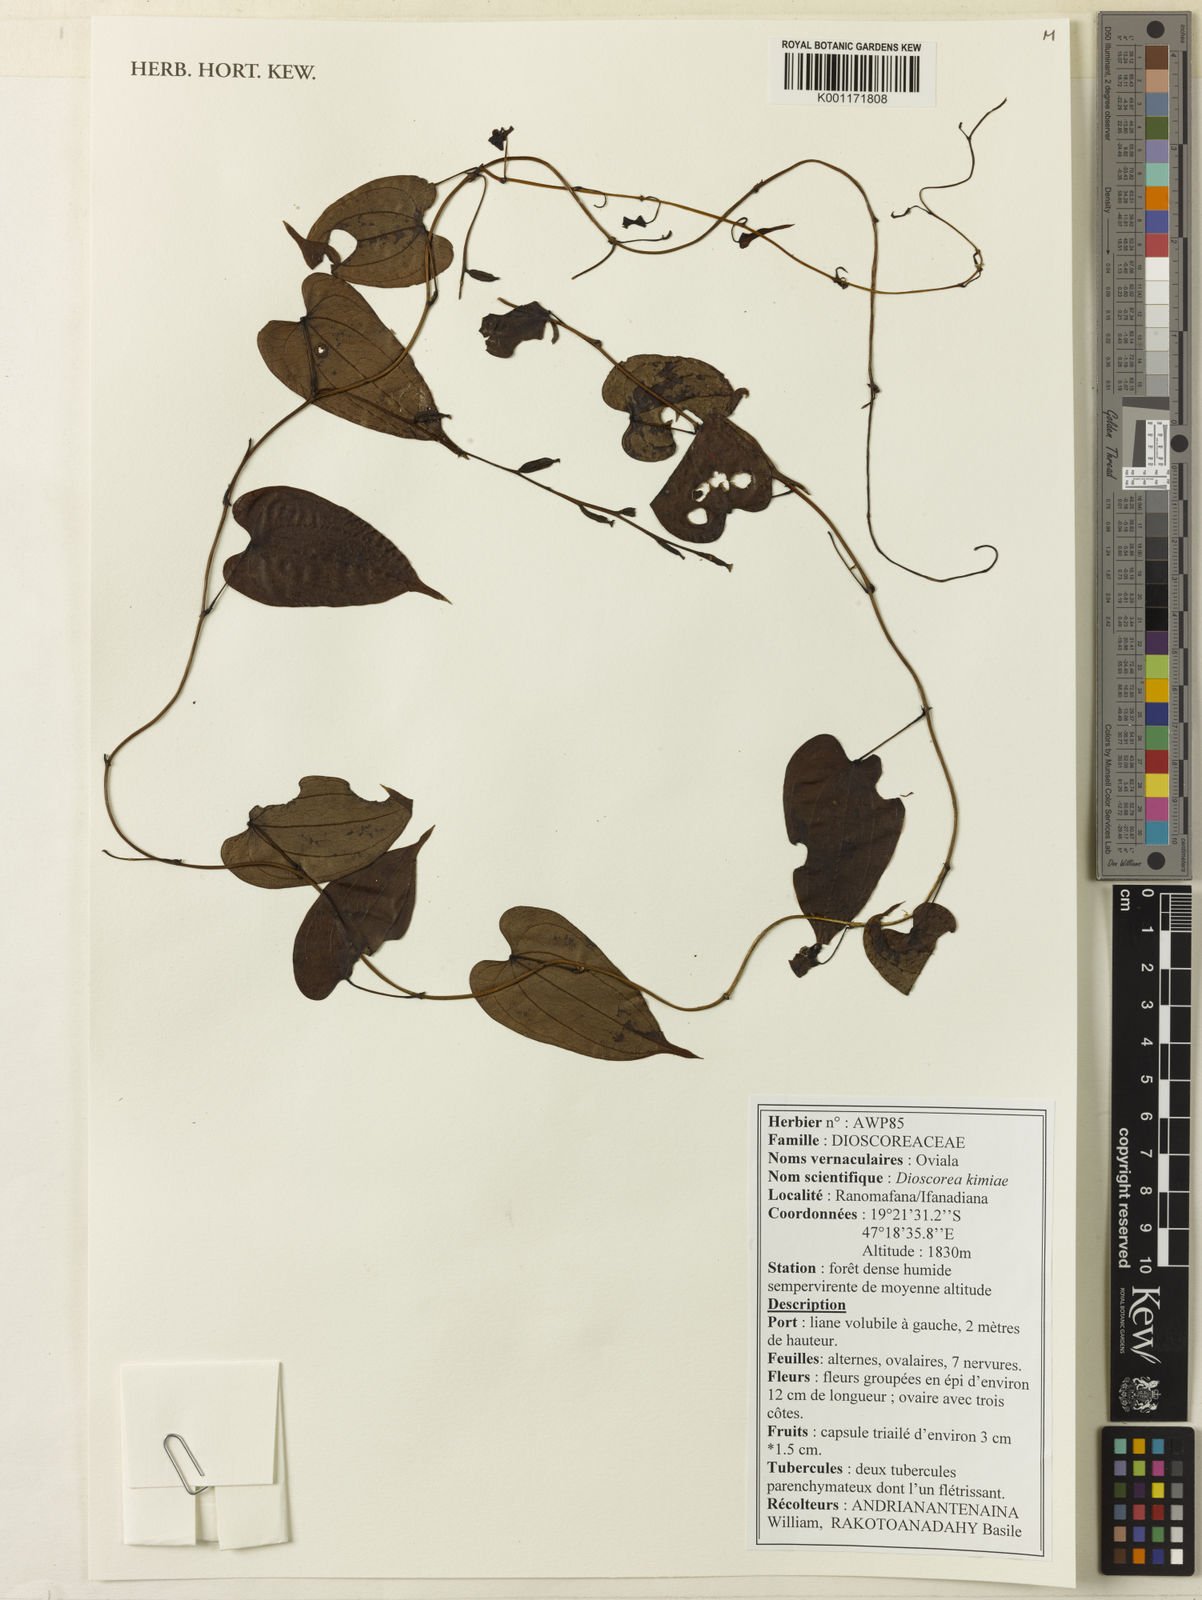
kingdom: Plantae
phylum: Tracheophyta
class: Liliopsida
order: Dioscoreales
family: Dioscoreaceae
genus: Dioscorea
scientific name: Dioscorea kimiae
